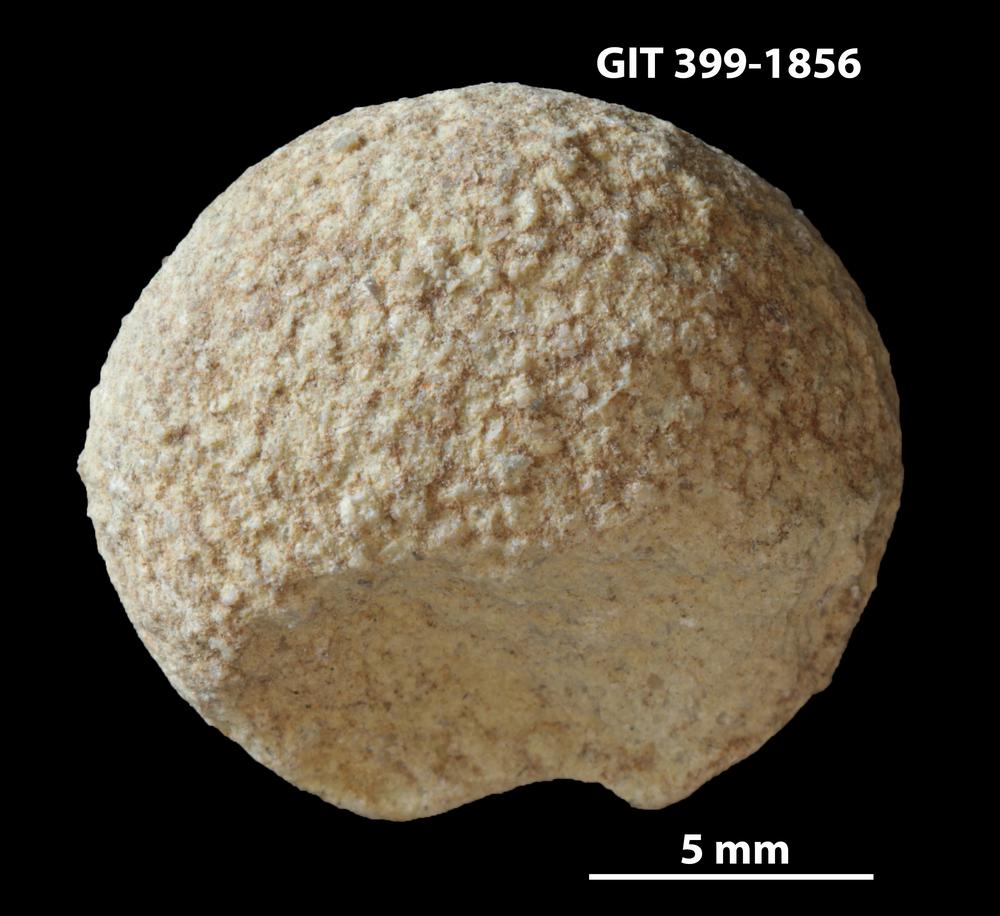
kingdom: Plantae
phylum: Chlorophyta
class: Ulvophyceae
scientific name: Ulvophyceae
